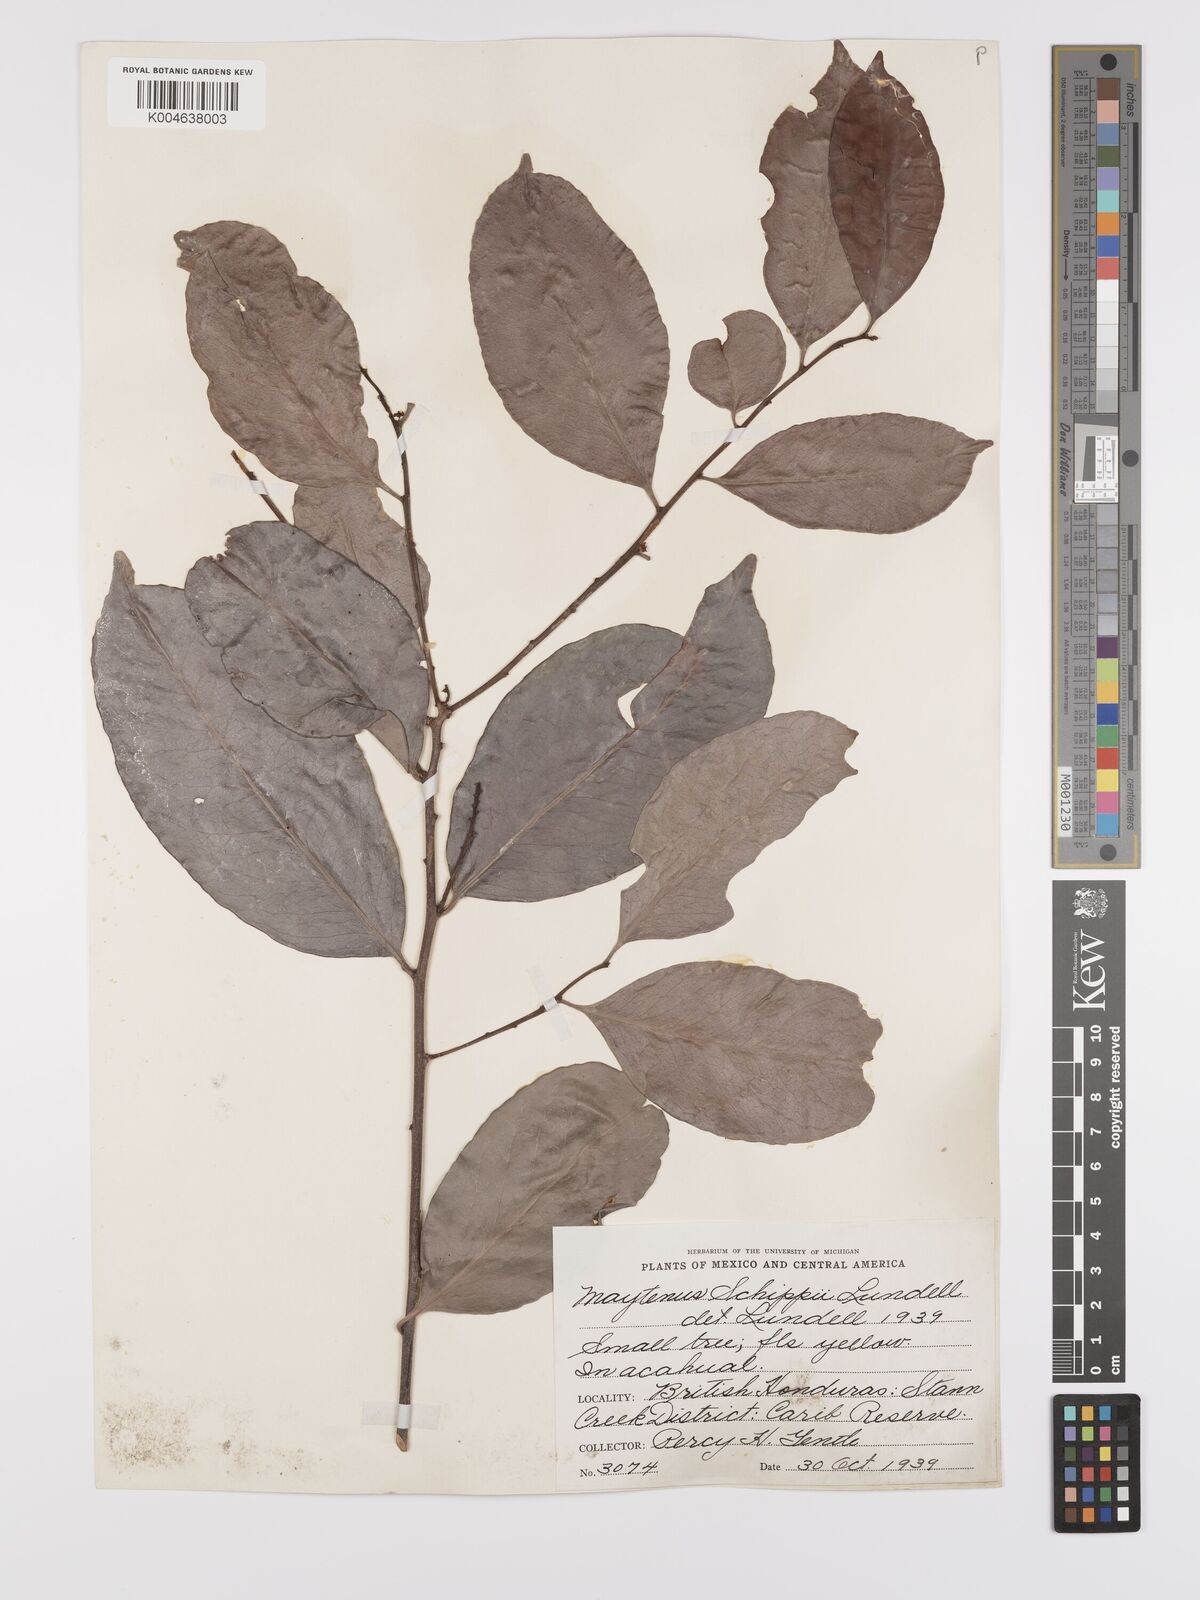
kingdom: Plantae
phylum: Tracheophyta
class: Magnoliopsida
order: Celastrales
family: Celastraceae
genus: Monteverdia
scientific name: Monteverdia schippii
